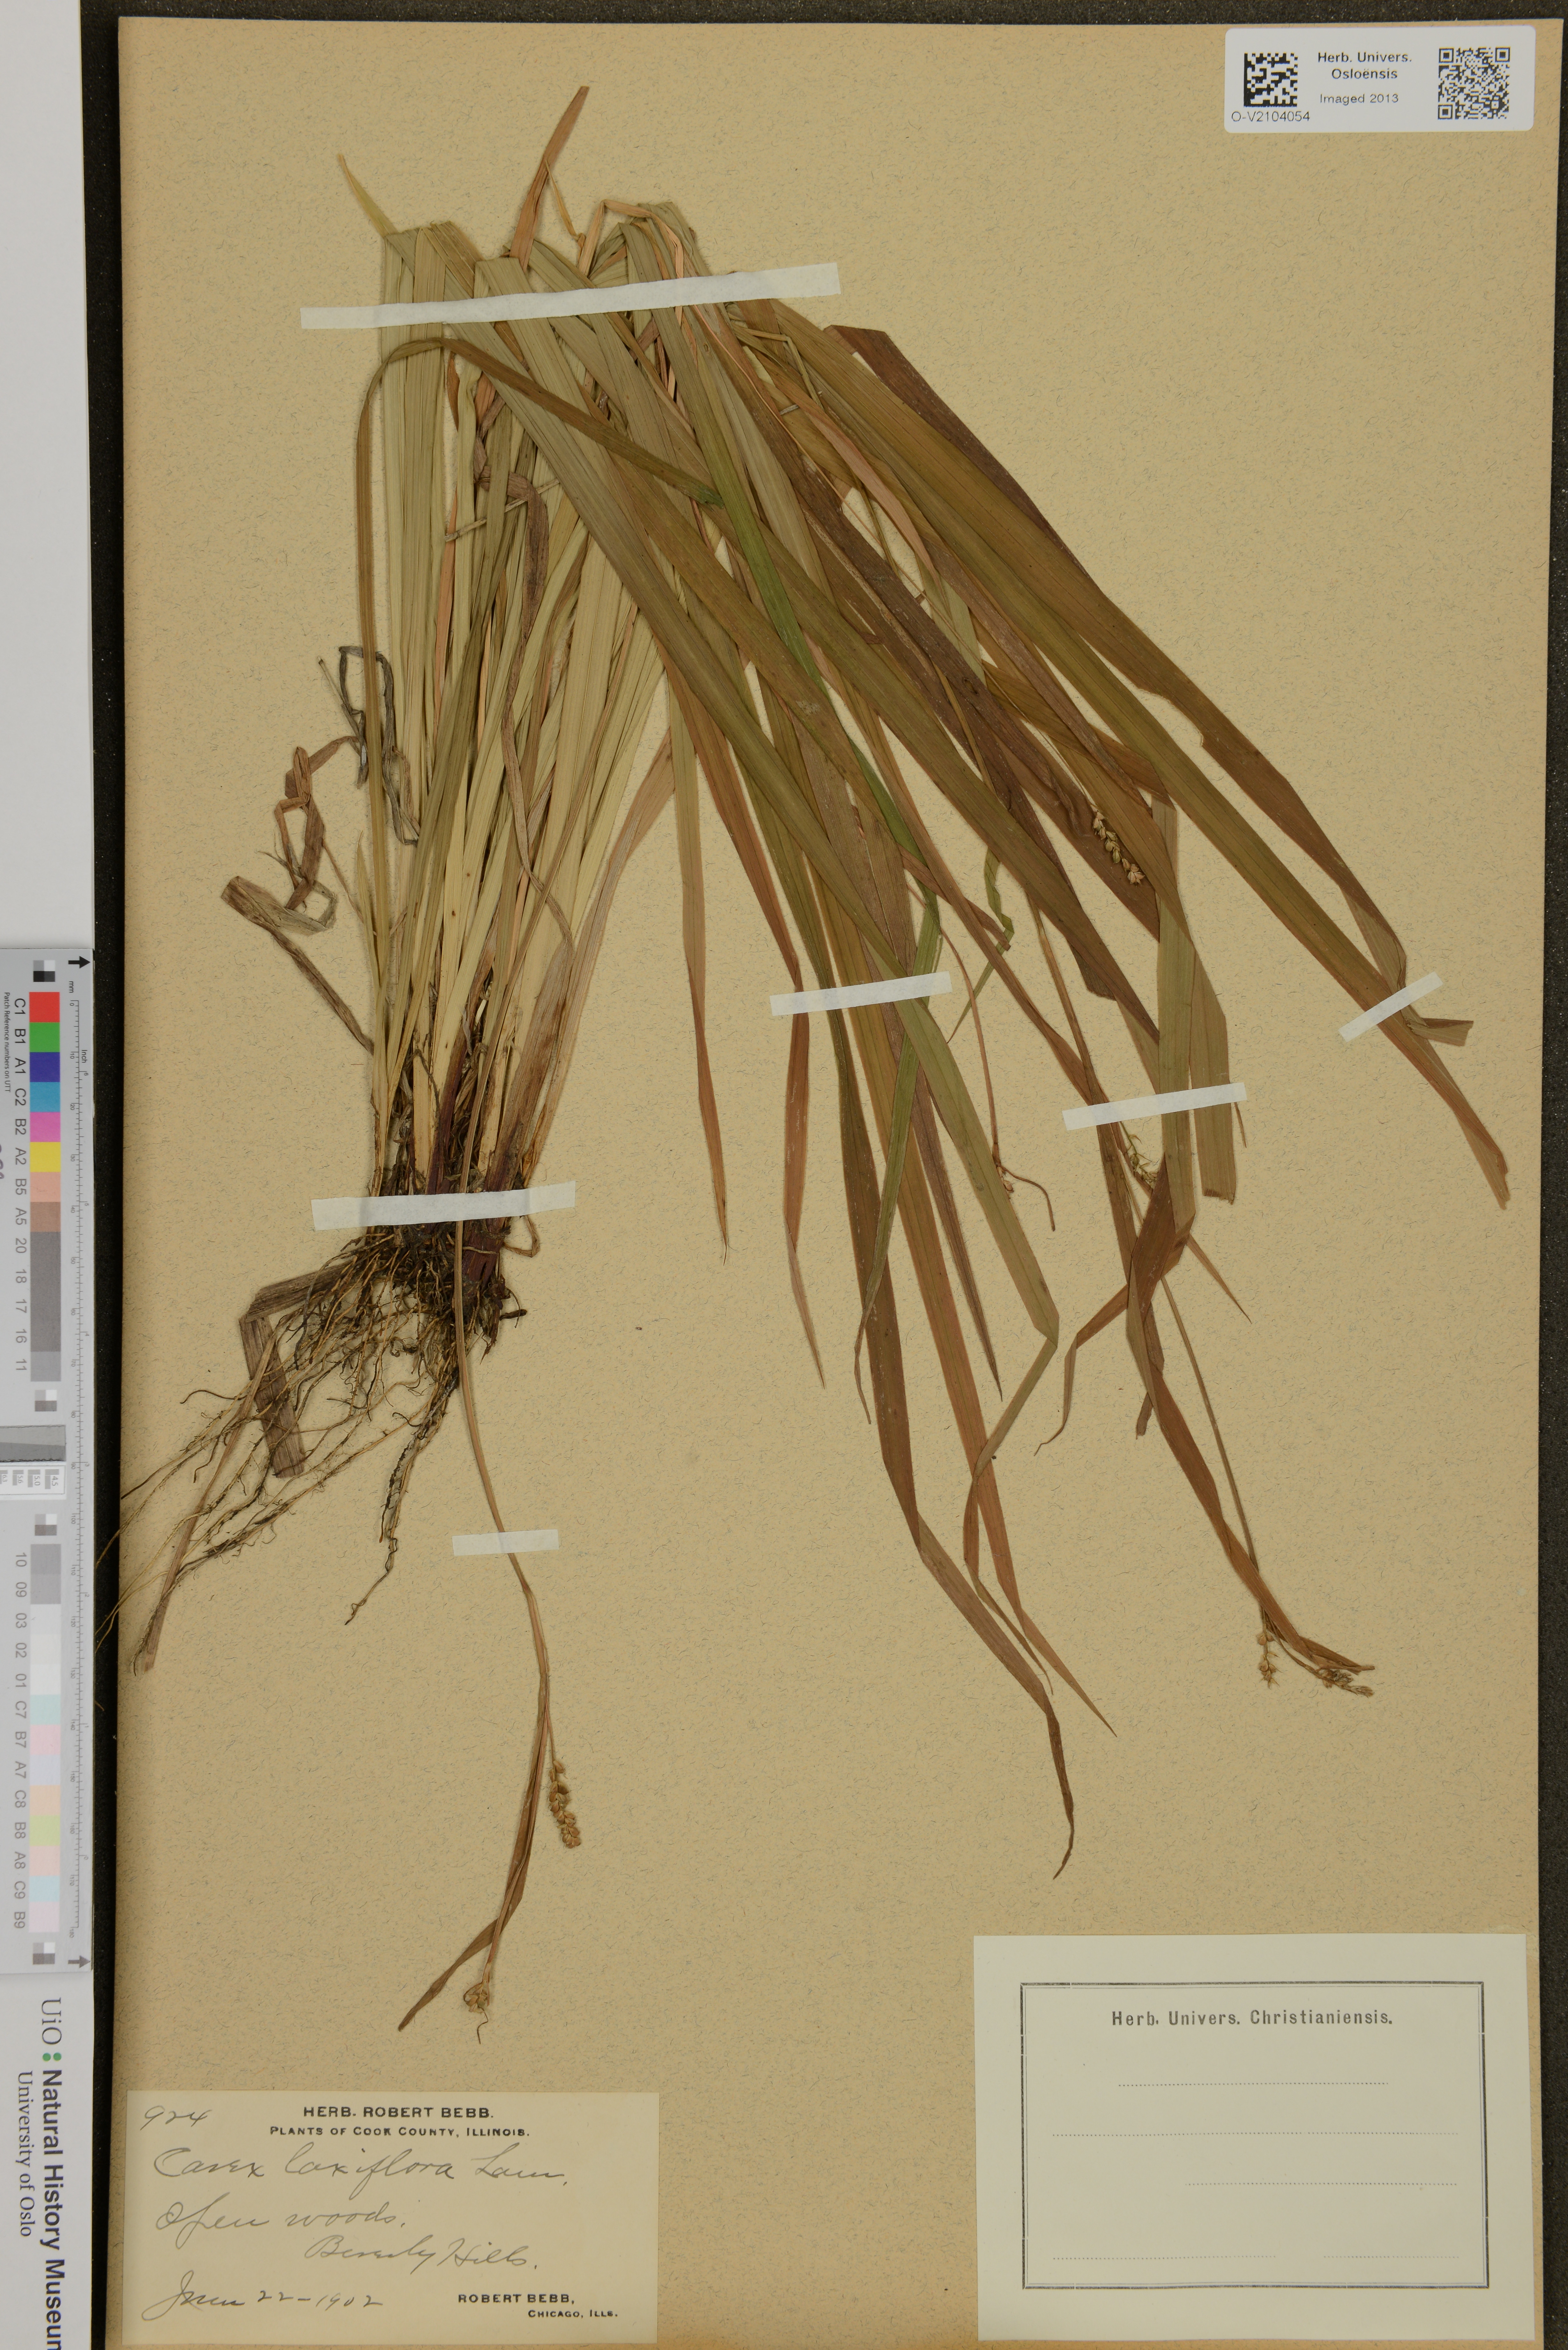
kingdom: Plantae
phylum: Tracheophyta
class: Liliopsida
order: Poales
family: Cyperaceae
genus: Carex
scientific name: Carex laxiflora
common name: Beech wood sedge
